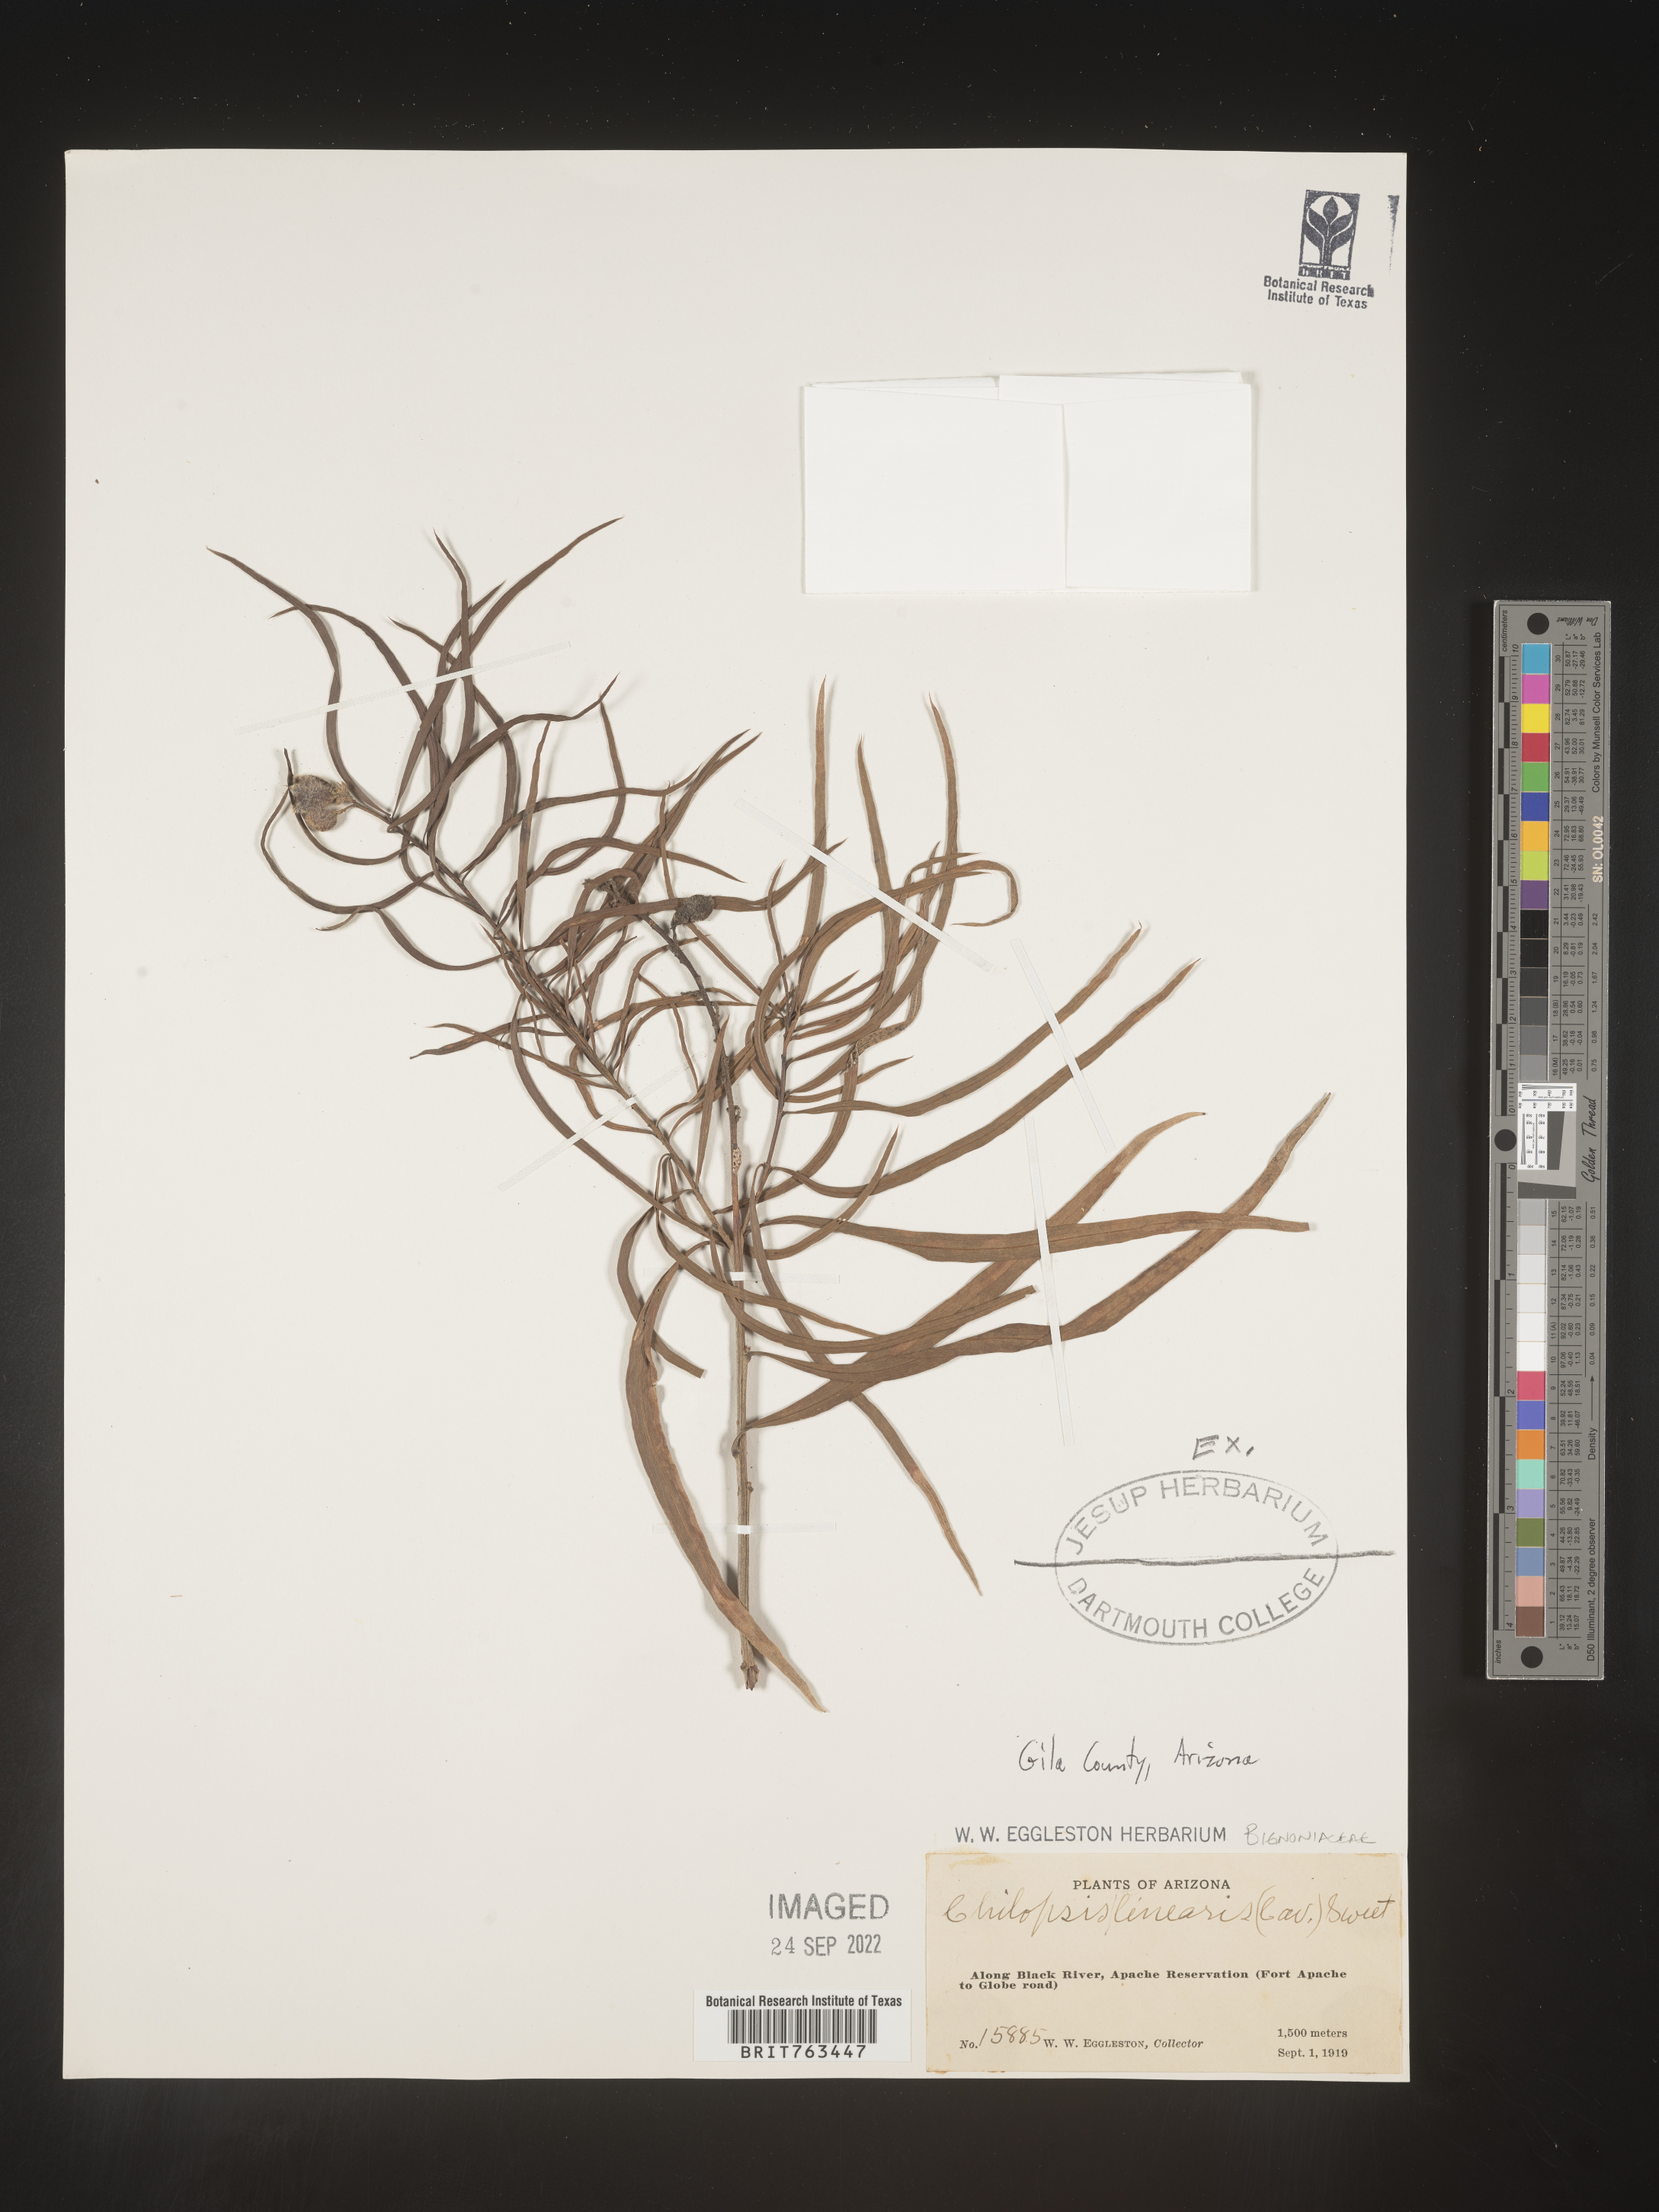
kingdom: Plantae
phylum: Tracheophyta
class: Magnoliopsida
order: Lamiales
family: Bignoniaceae
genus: Chilopsis
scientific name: Chilopsis linearis
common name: Desert-willow
